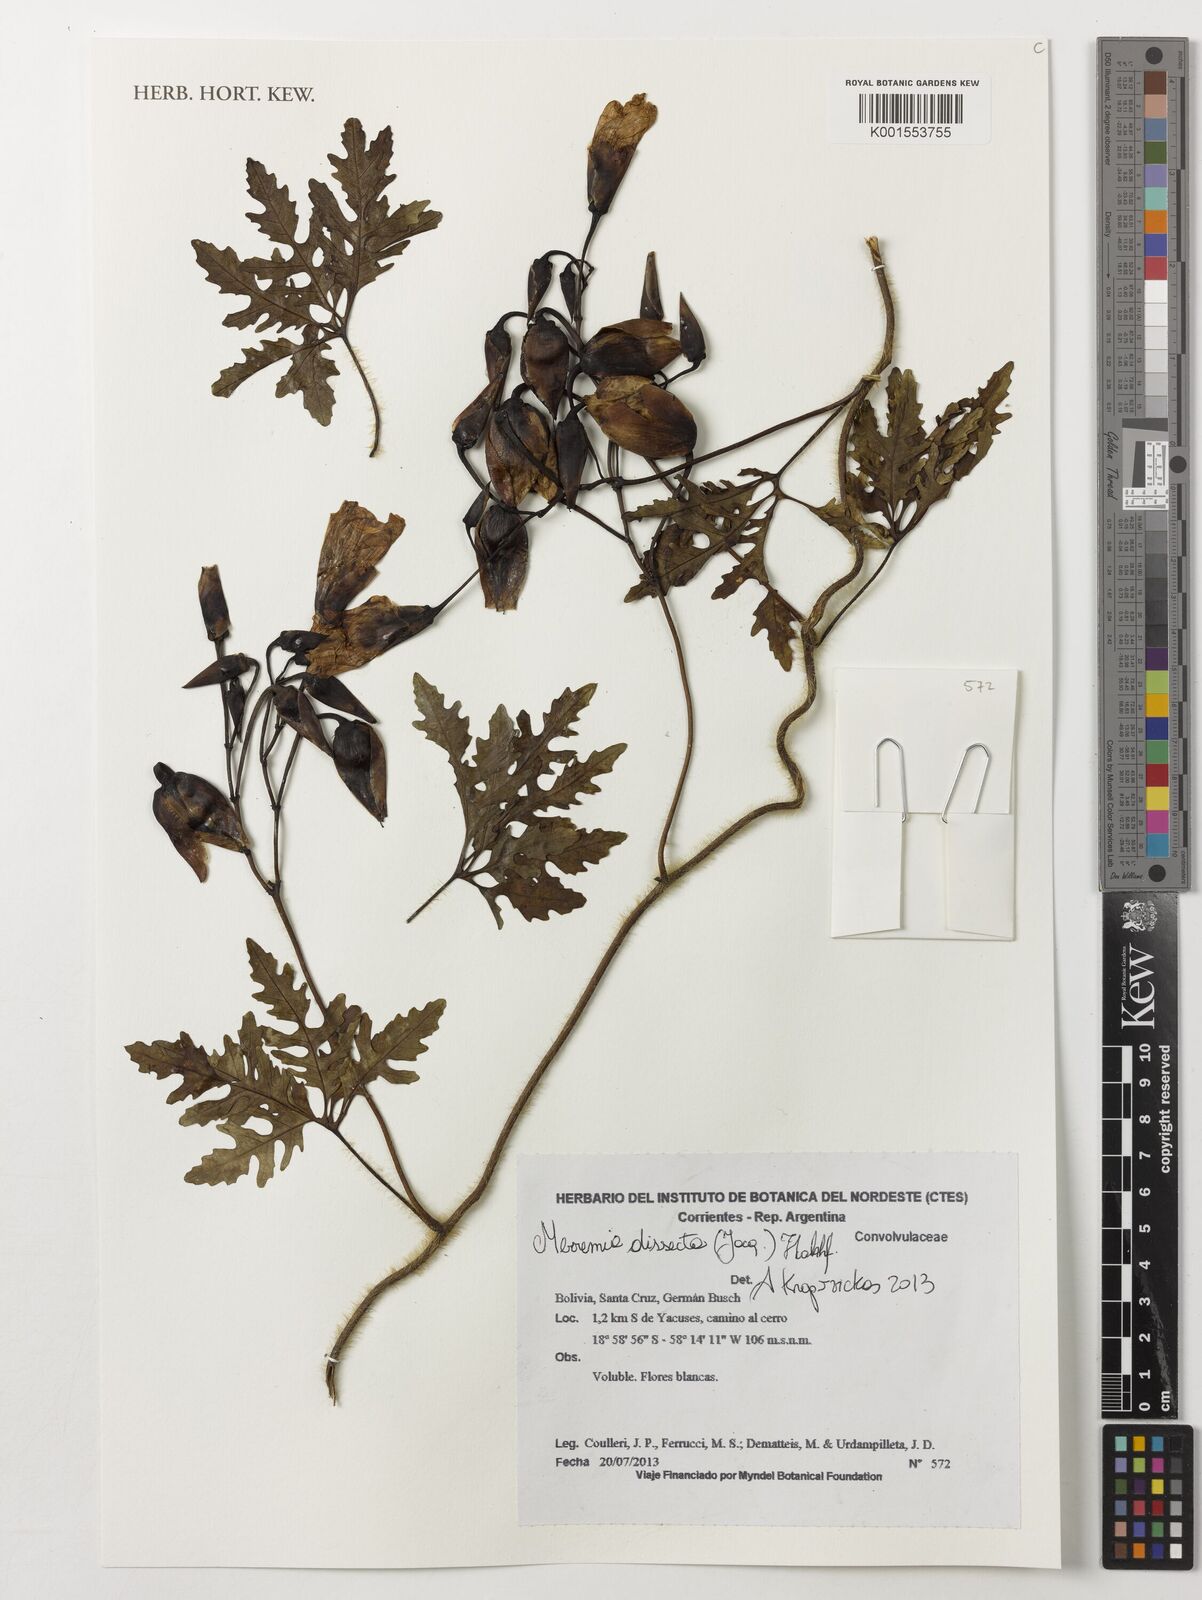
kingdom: Plantae
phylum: Tracheophyta
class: Magnoliopsida
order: Solanales
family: Convolvulaceae
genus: Distimake
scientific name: Distimake dissectus
